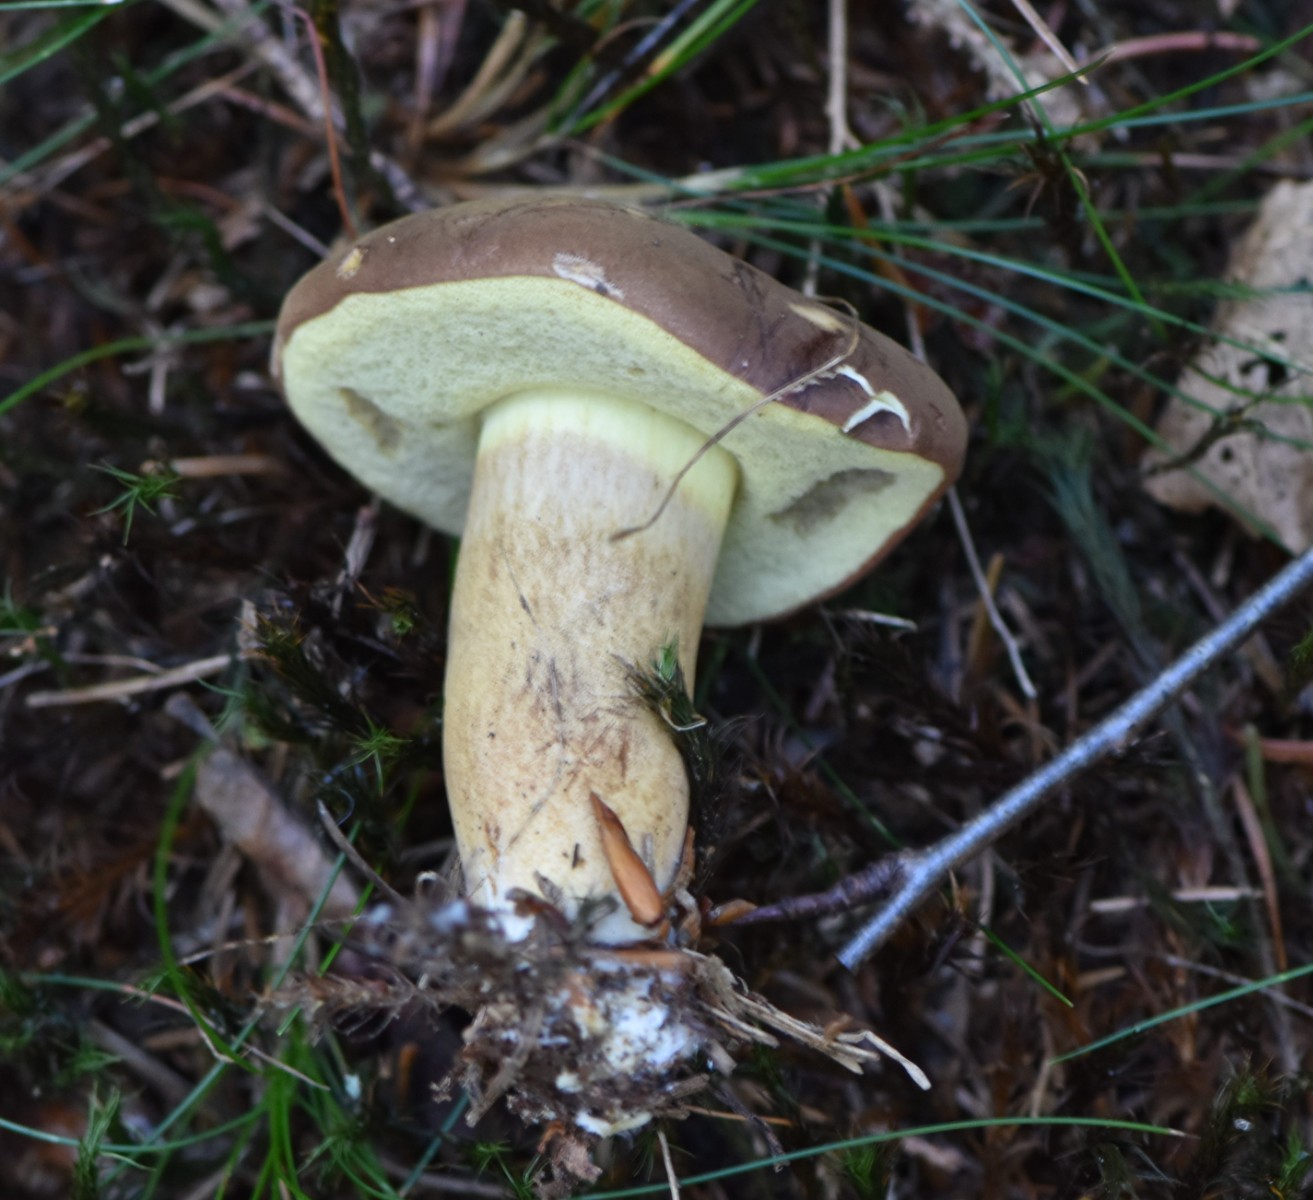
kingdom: Fungi
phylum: Basidiomycota
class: Agaricomycetes
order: Boletales
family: Boletaceae
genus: Imleria
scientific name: Imleria badia
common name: brunstokket rørhat
